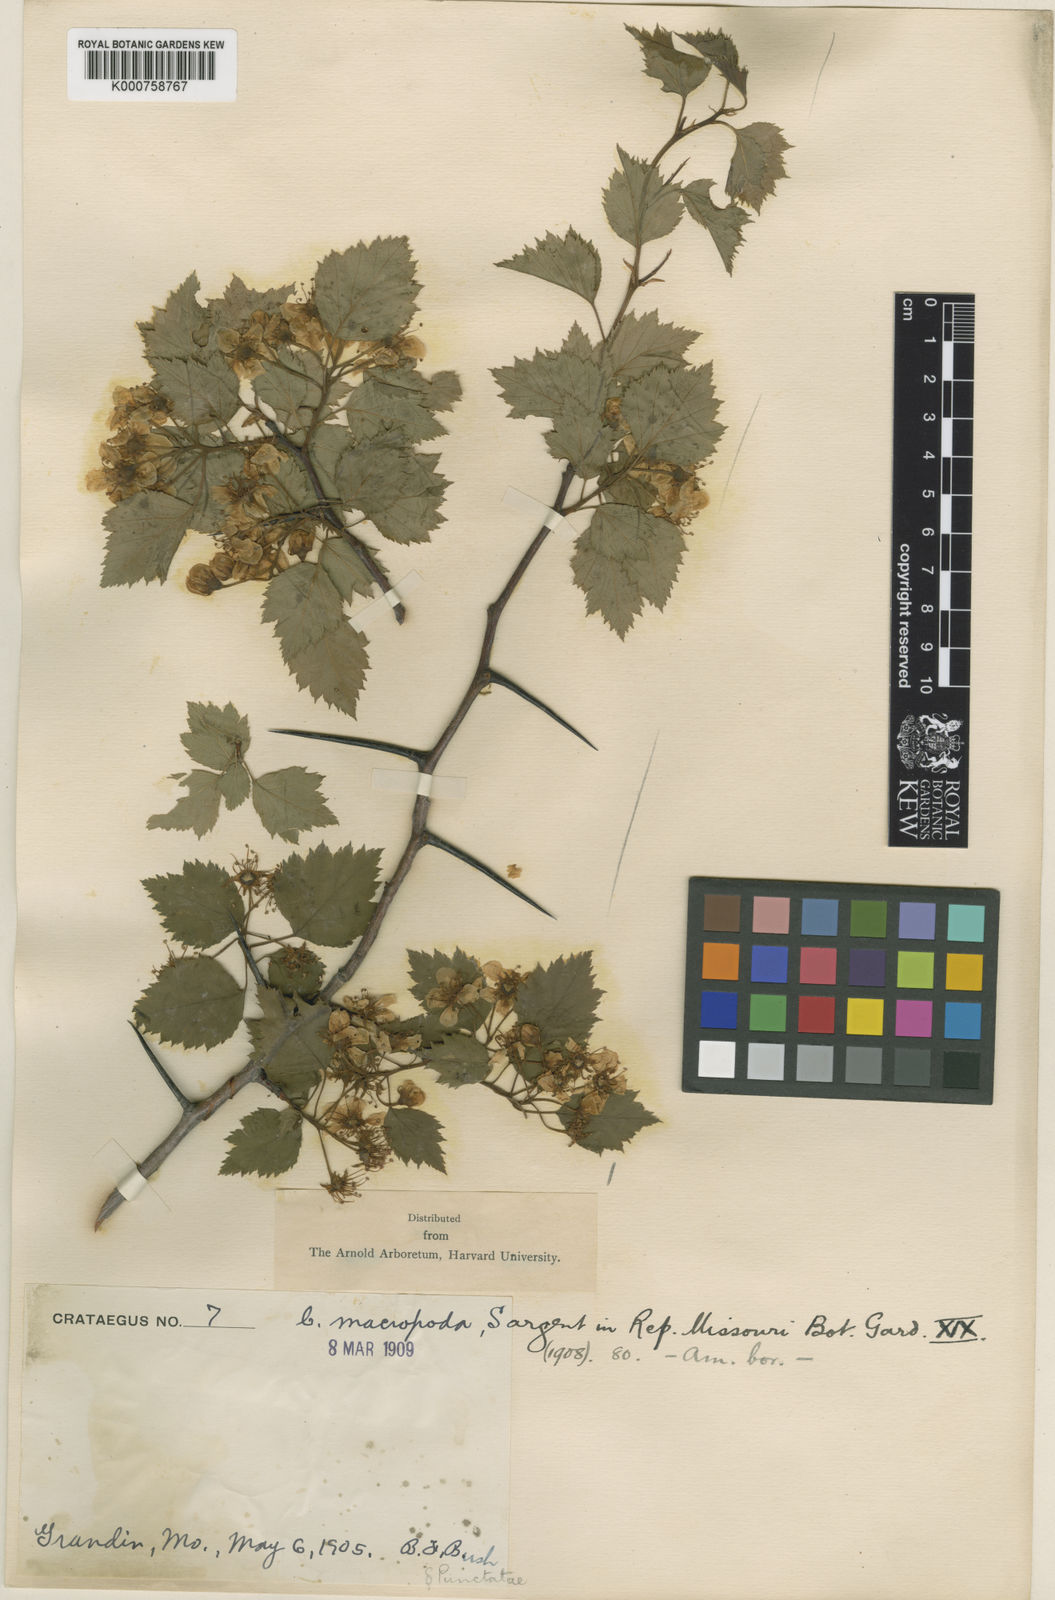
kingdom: Plantae
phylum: Tracheophyta
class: Magnoliopsida
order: Rosales
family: Rosaceae
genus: Crataegus
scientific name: Crataegus macropoda
